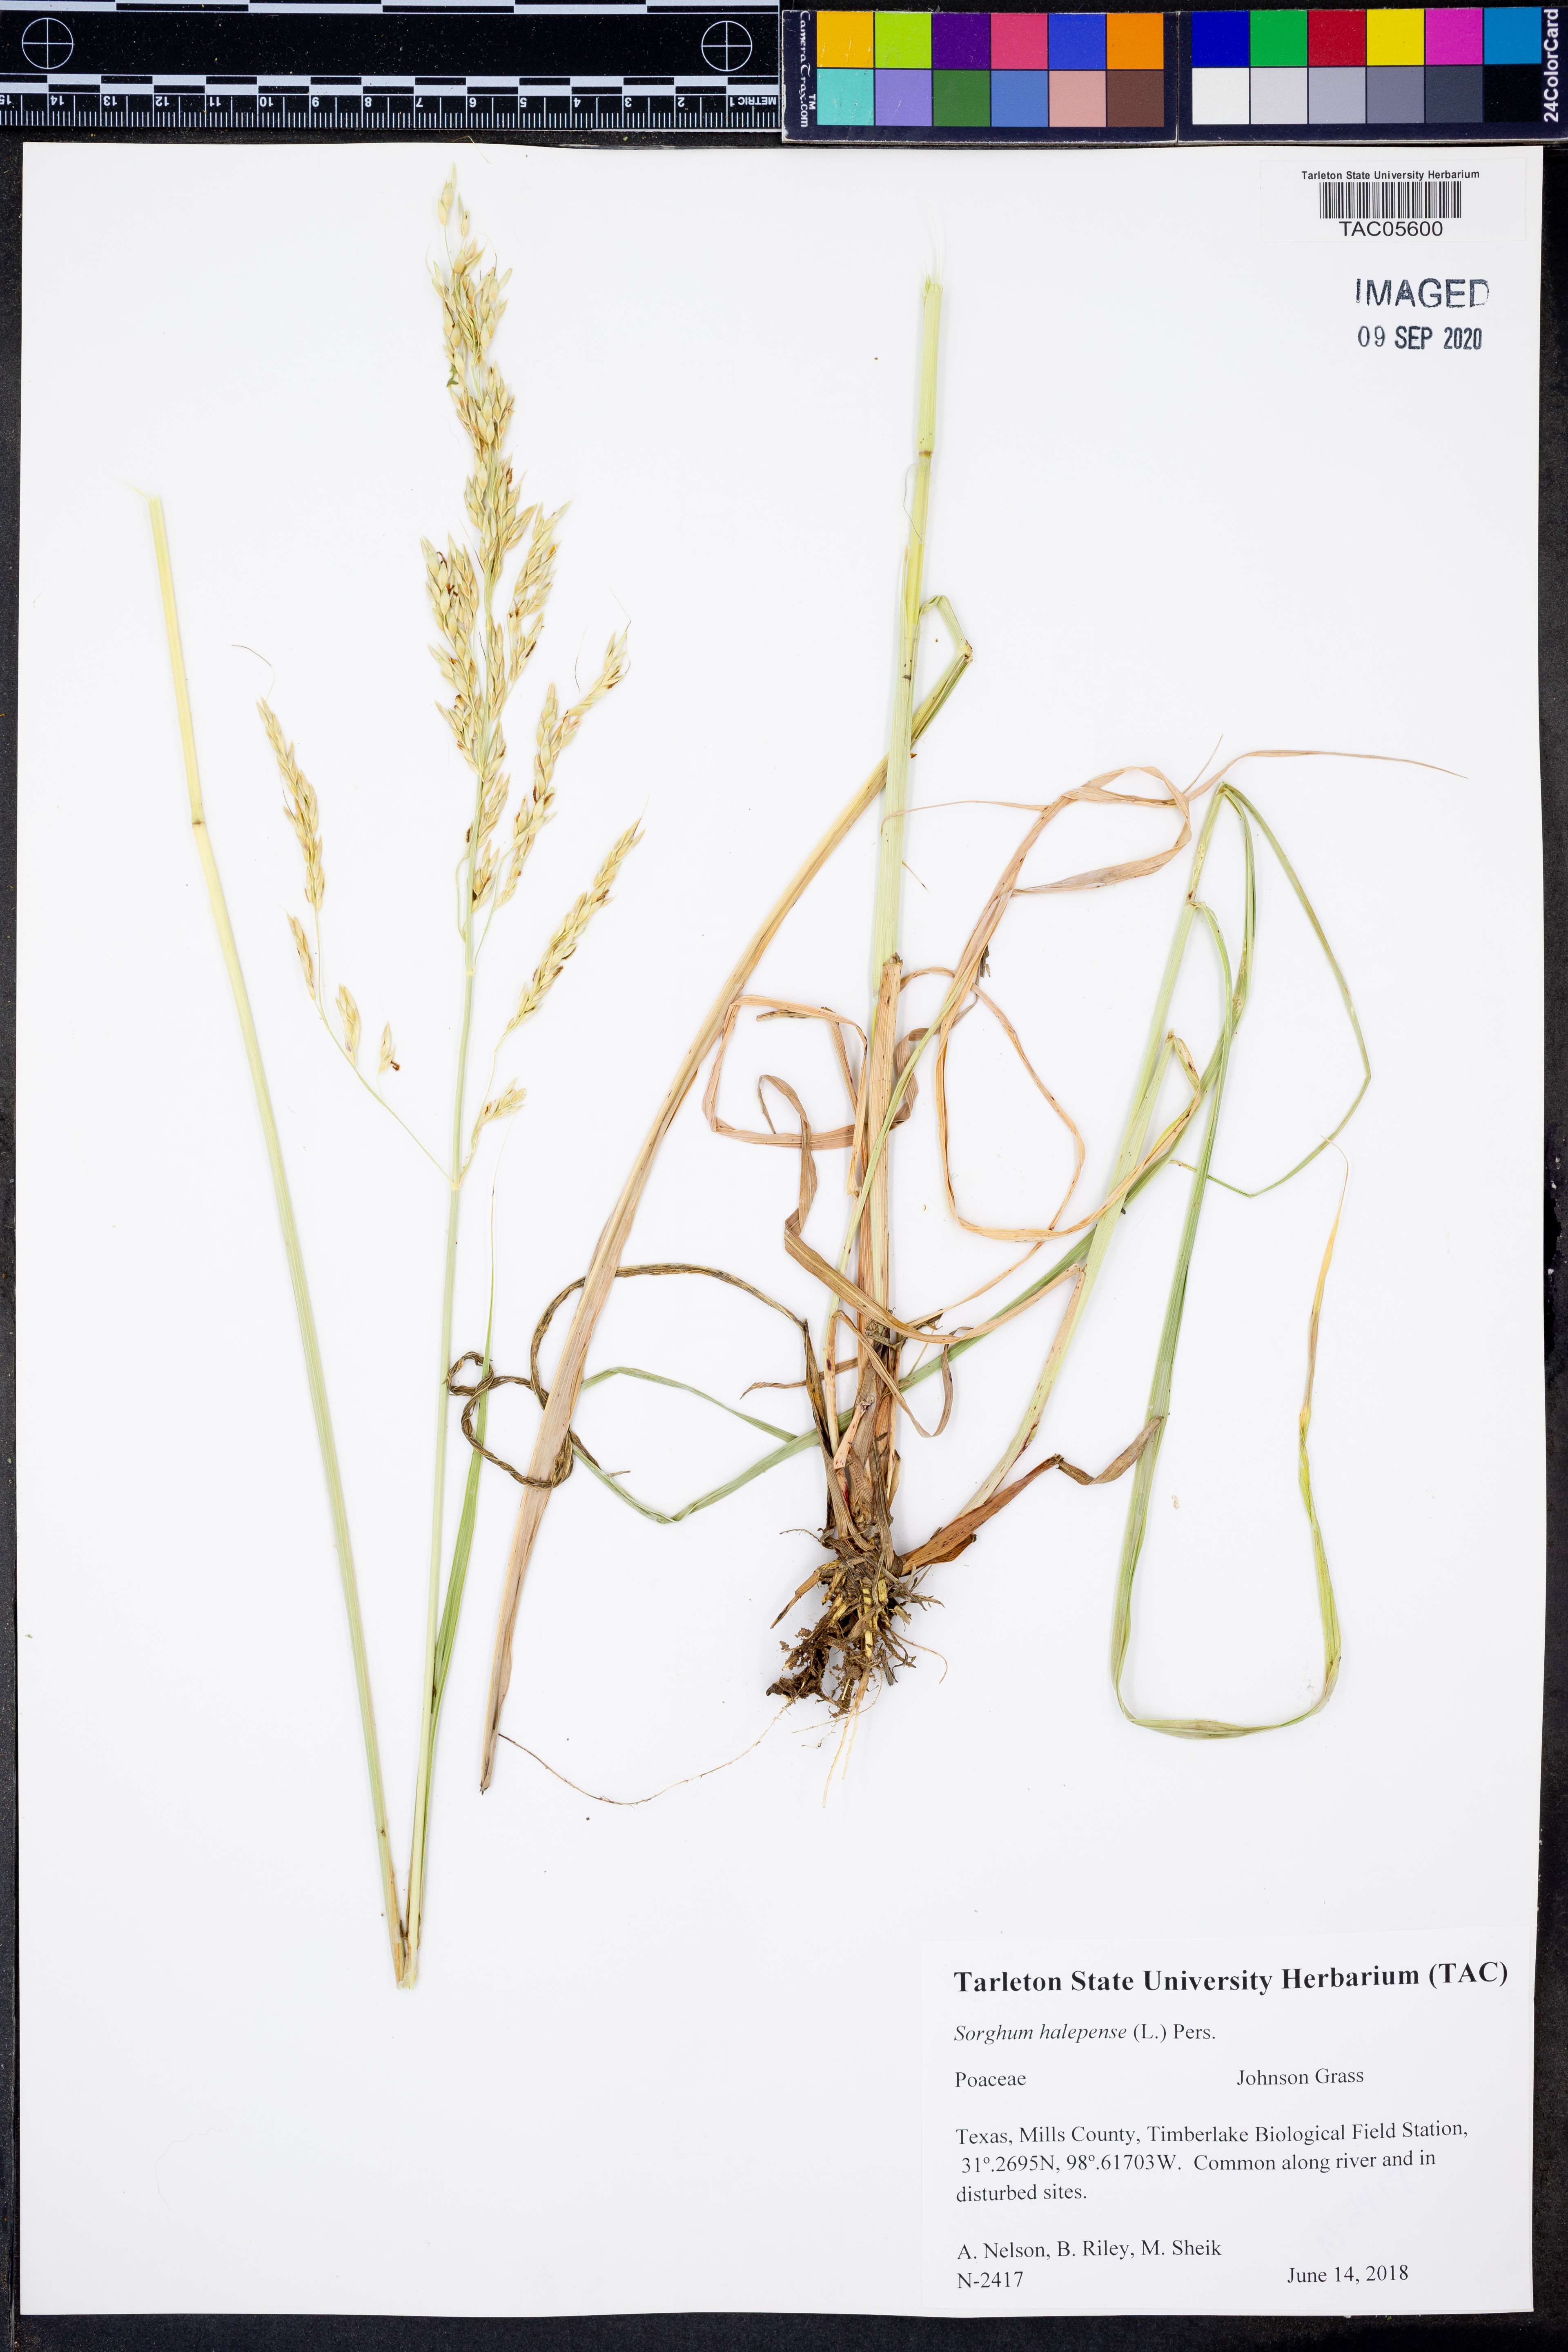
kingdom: Plantae
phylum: Tracheophyta
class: Liliopsida
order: Poales
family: Poaceae
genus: Sorghum
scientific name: Sorghum halepense
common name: Johnson-grass
